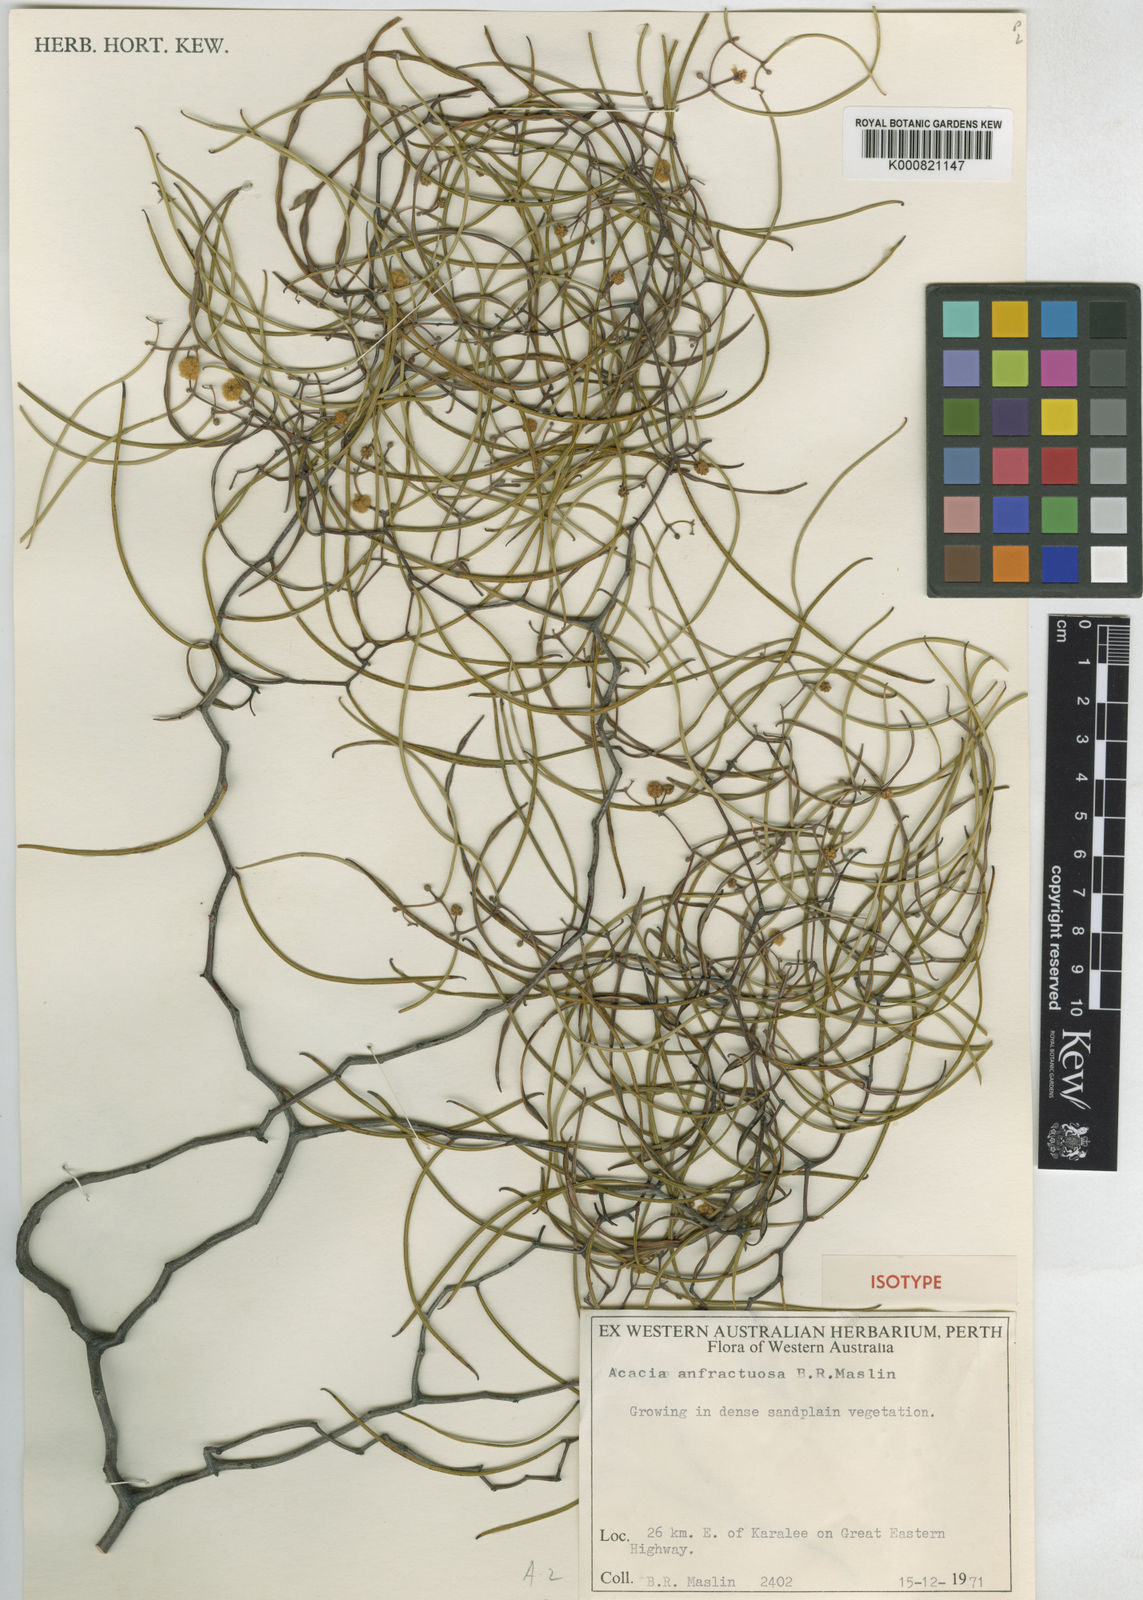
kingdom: Plantae
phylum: Tracheophyta
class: Magnoliopsida
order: Fabales
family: Fabaceae
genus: Acacia
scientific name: Acacia anfractuosa
